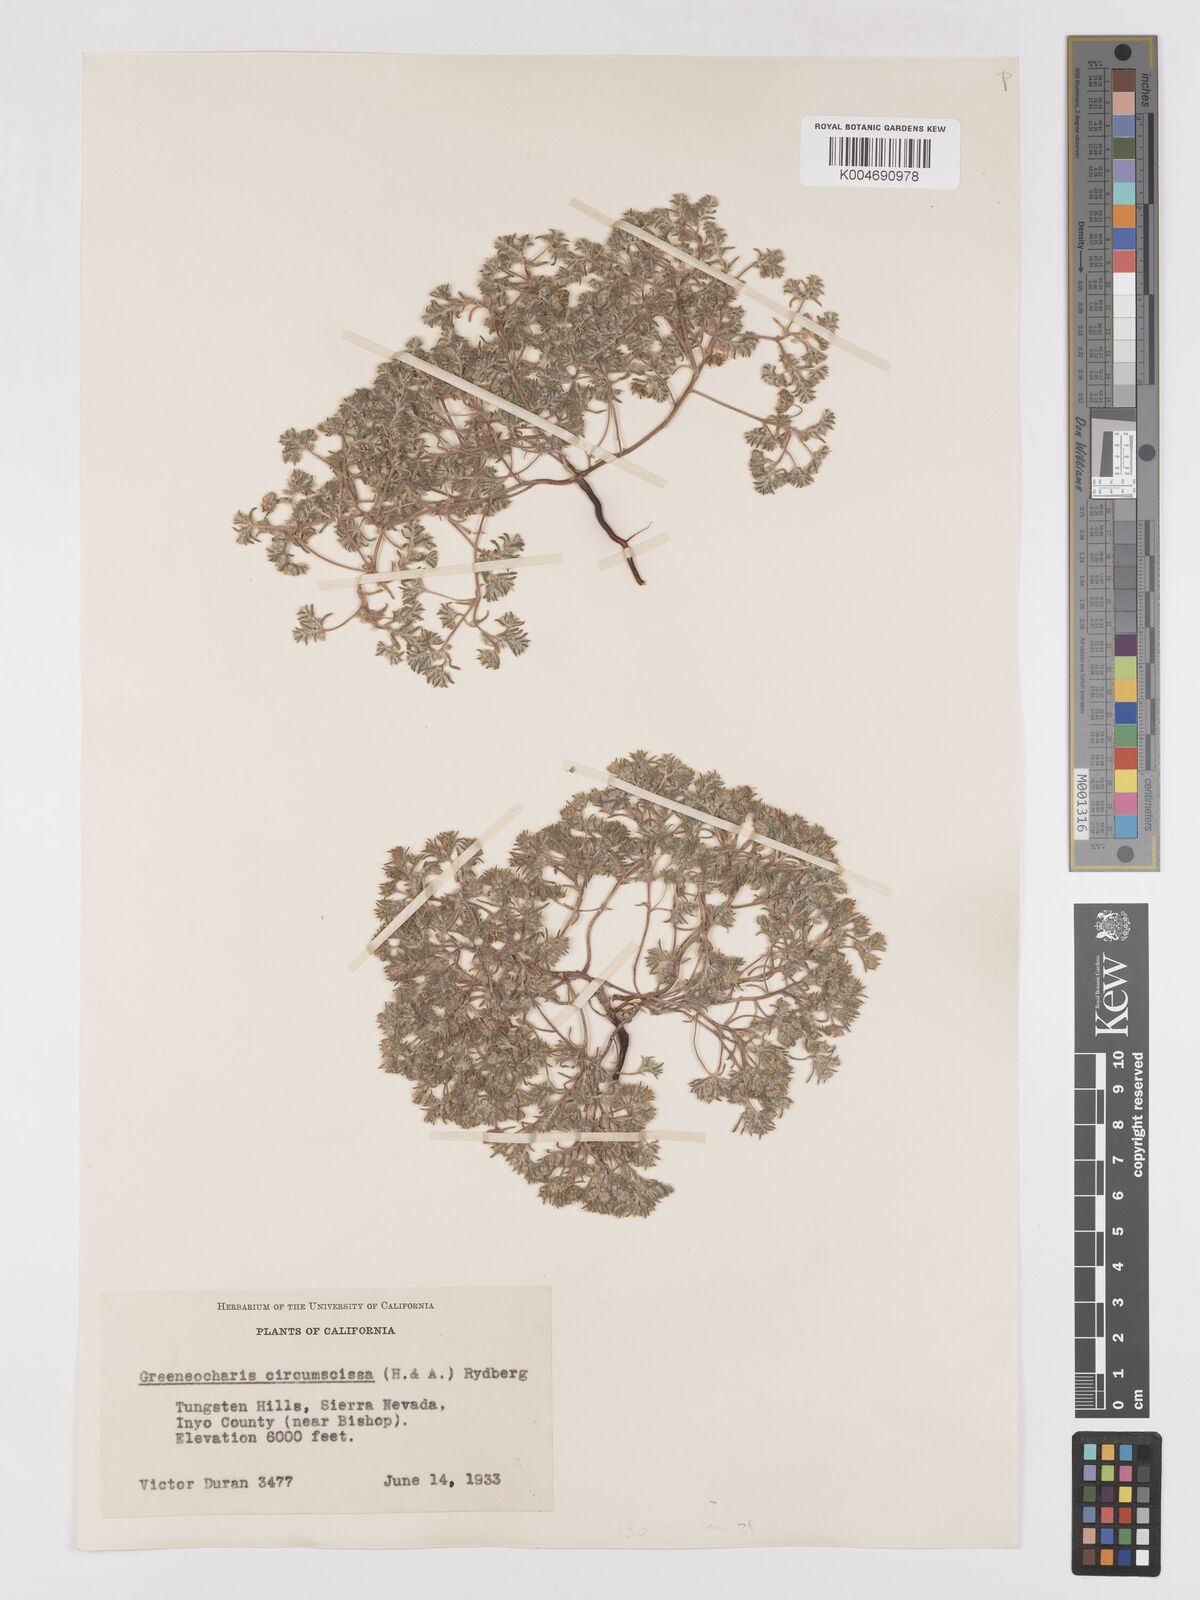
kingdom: Plantae
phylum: Tracheophyta
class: Magnoliopsida
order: Boraginales
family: Boraginaceae
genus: Greeneocharis
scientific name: Greeneocharis circumscissa
